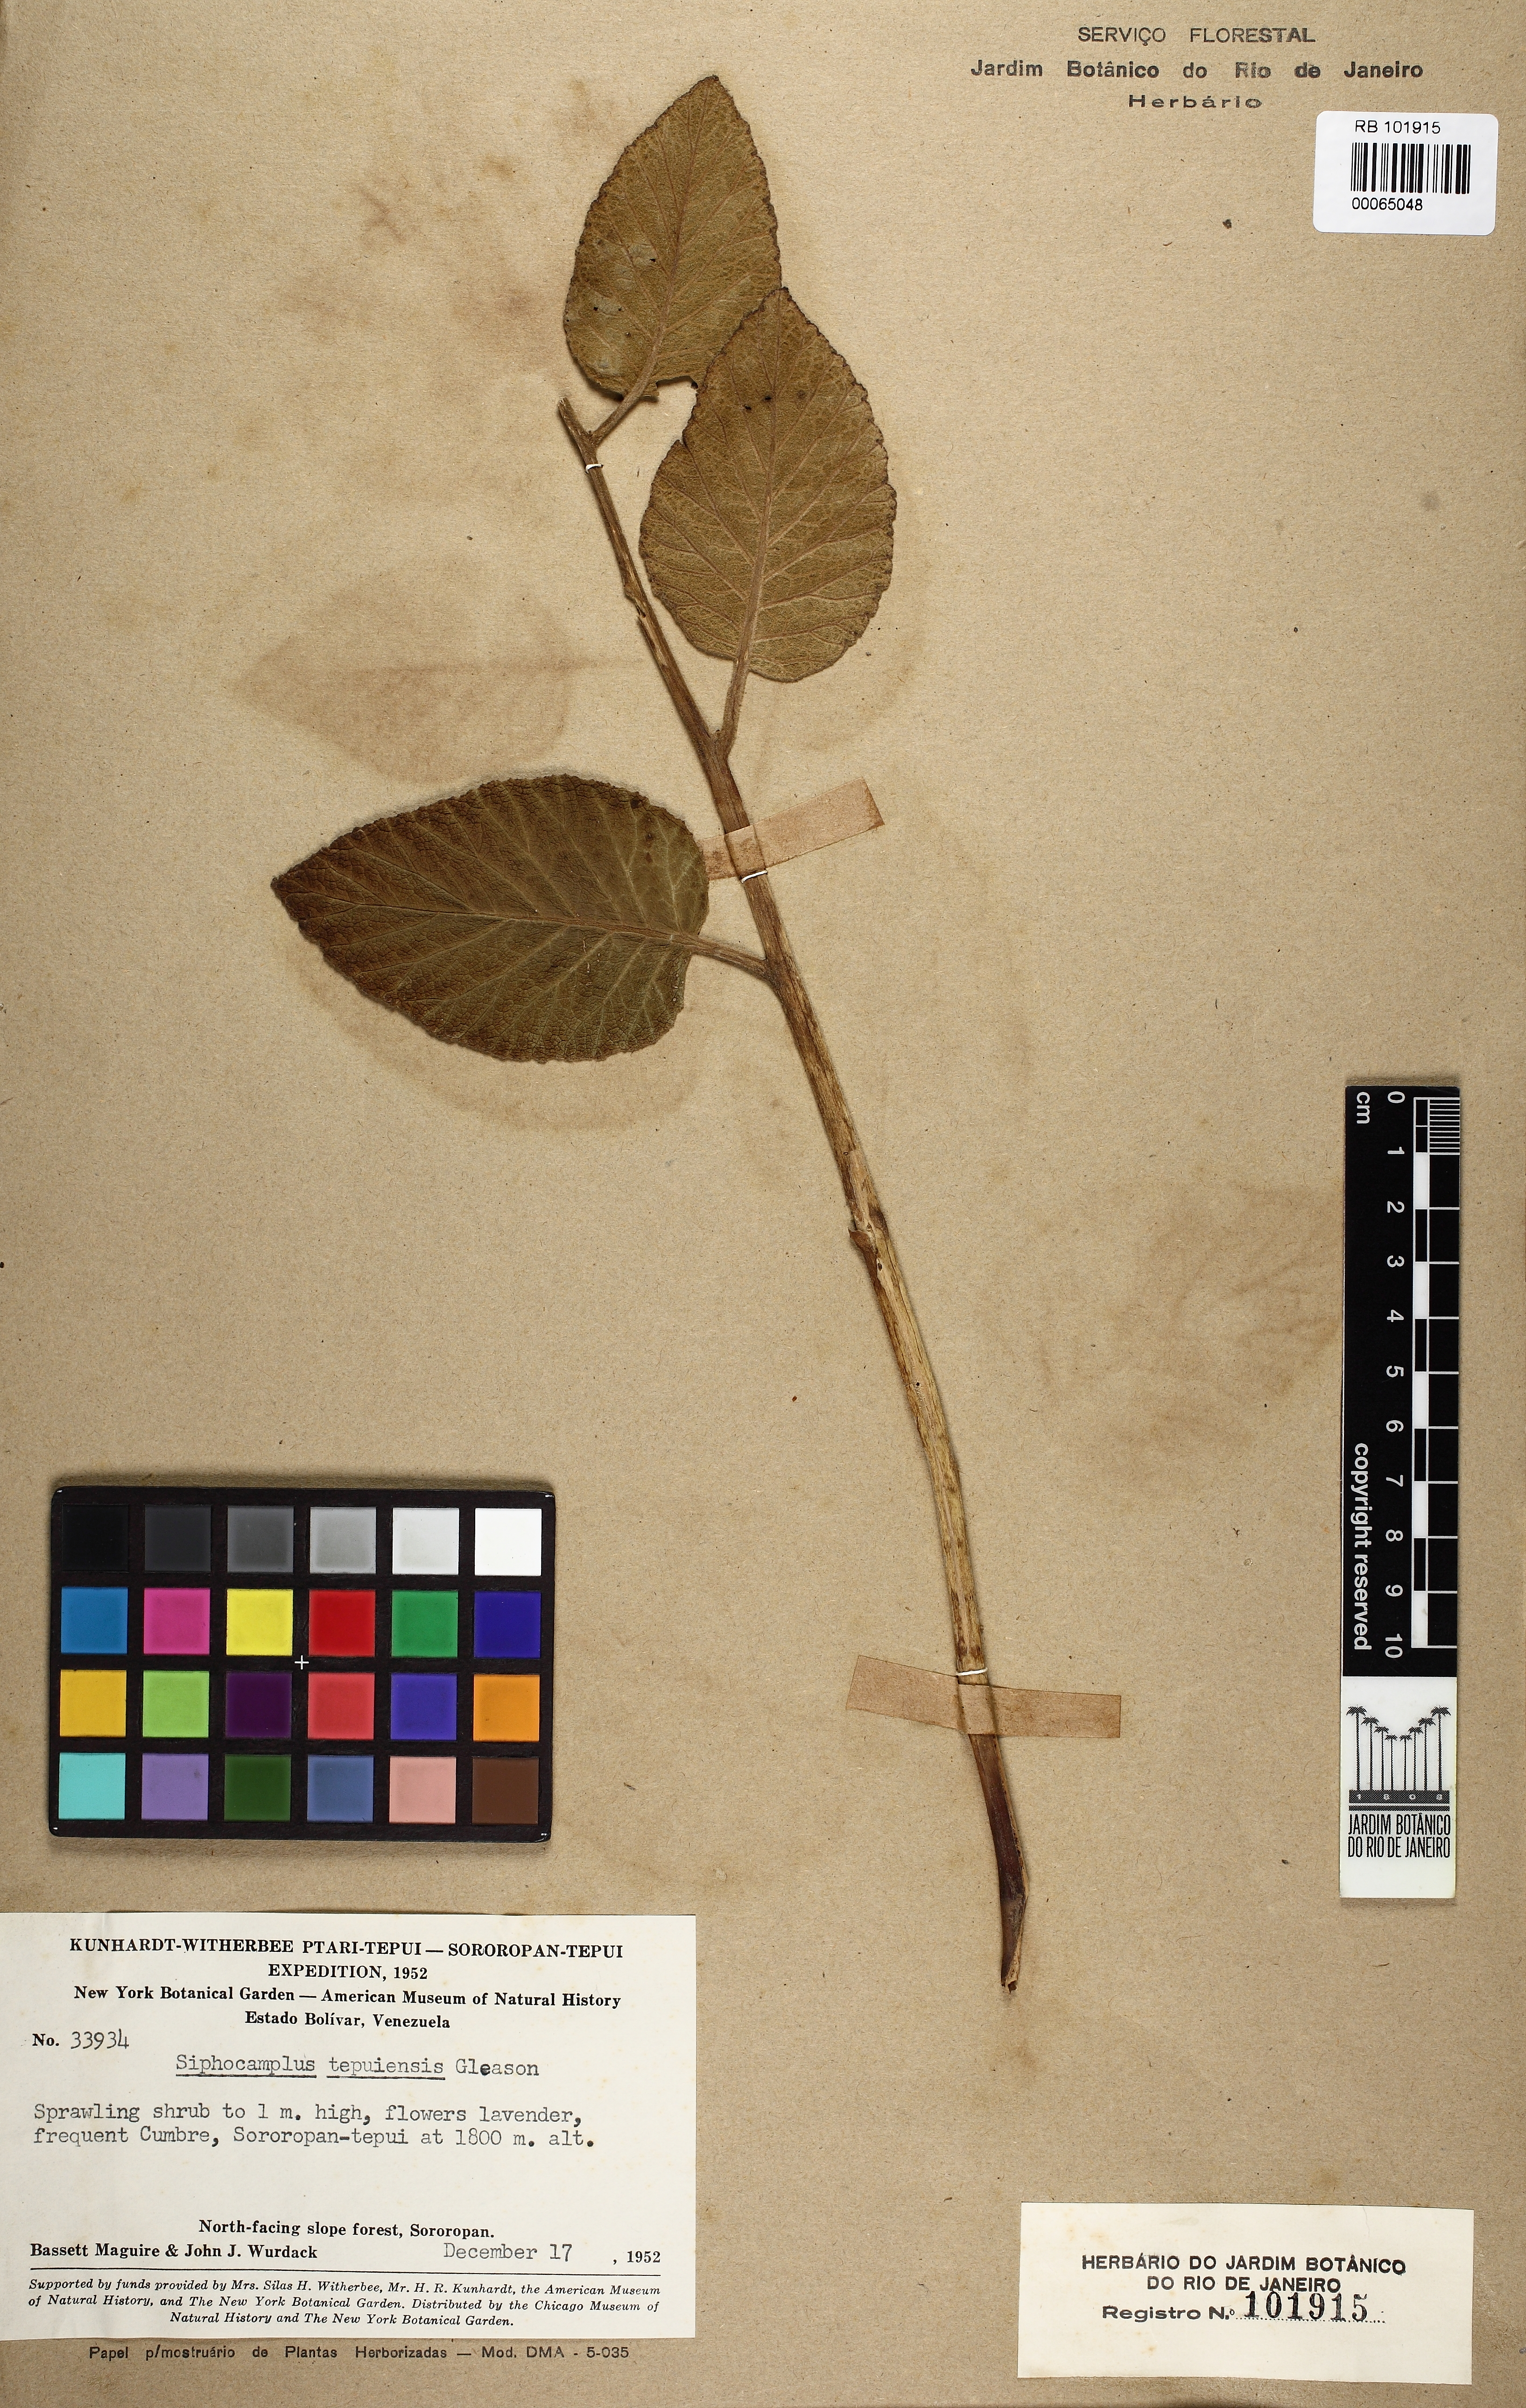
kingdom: Plantae
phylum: Tracheophyta
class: Magnoliopsida
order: Asterales
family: Campanulaceae
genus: Siphocampylus
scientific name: Siphocampylus reticulatus
